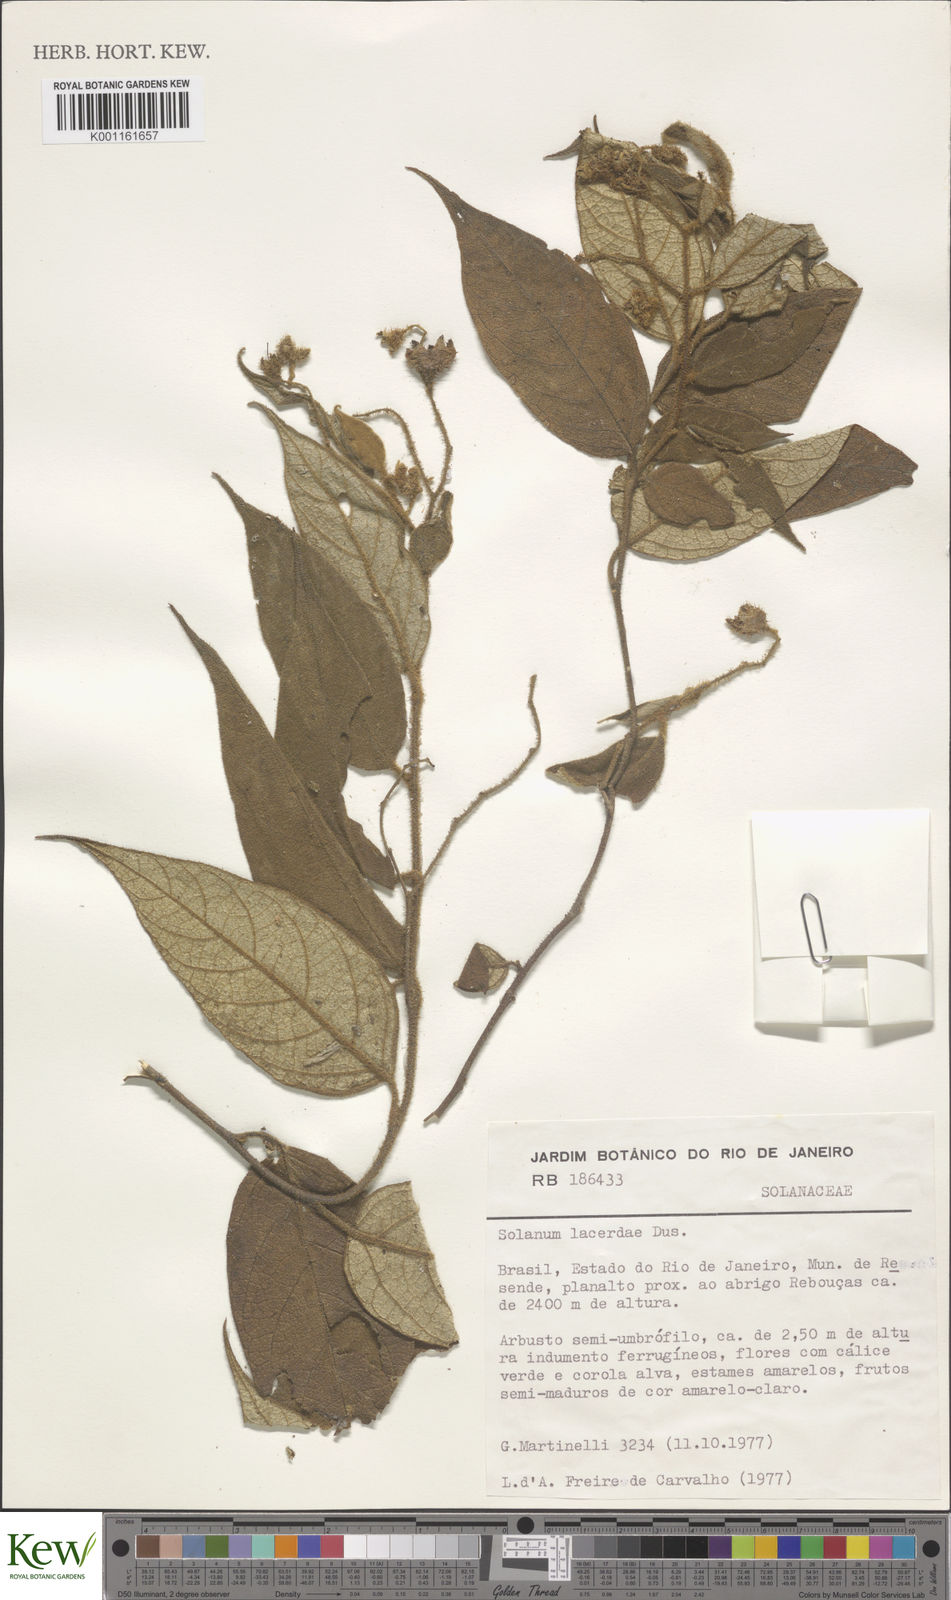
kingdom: Plantae
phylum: Tracheophyta
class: Magnoliopsida
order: Solanales
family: Solanaceae
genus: Solanum
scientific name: Solanum
